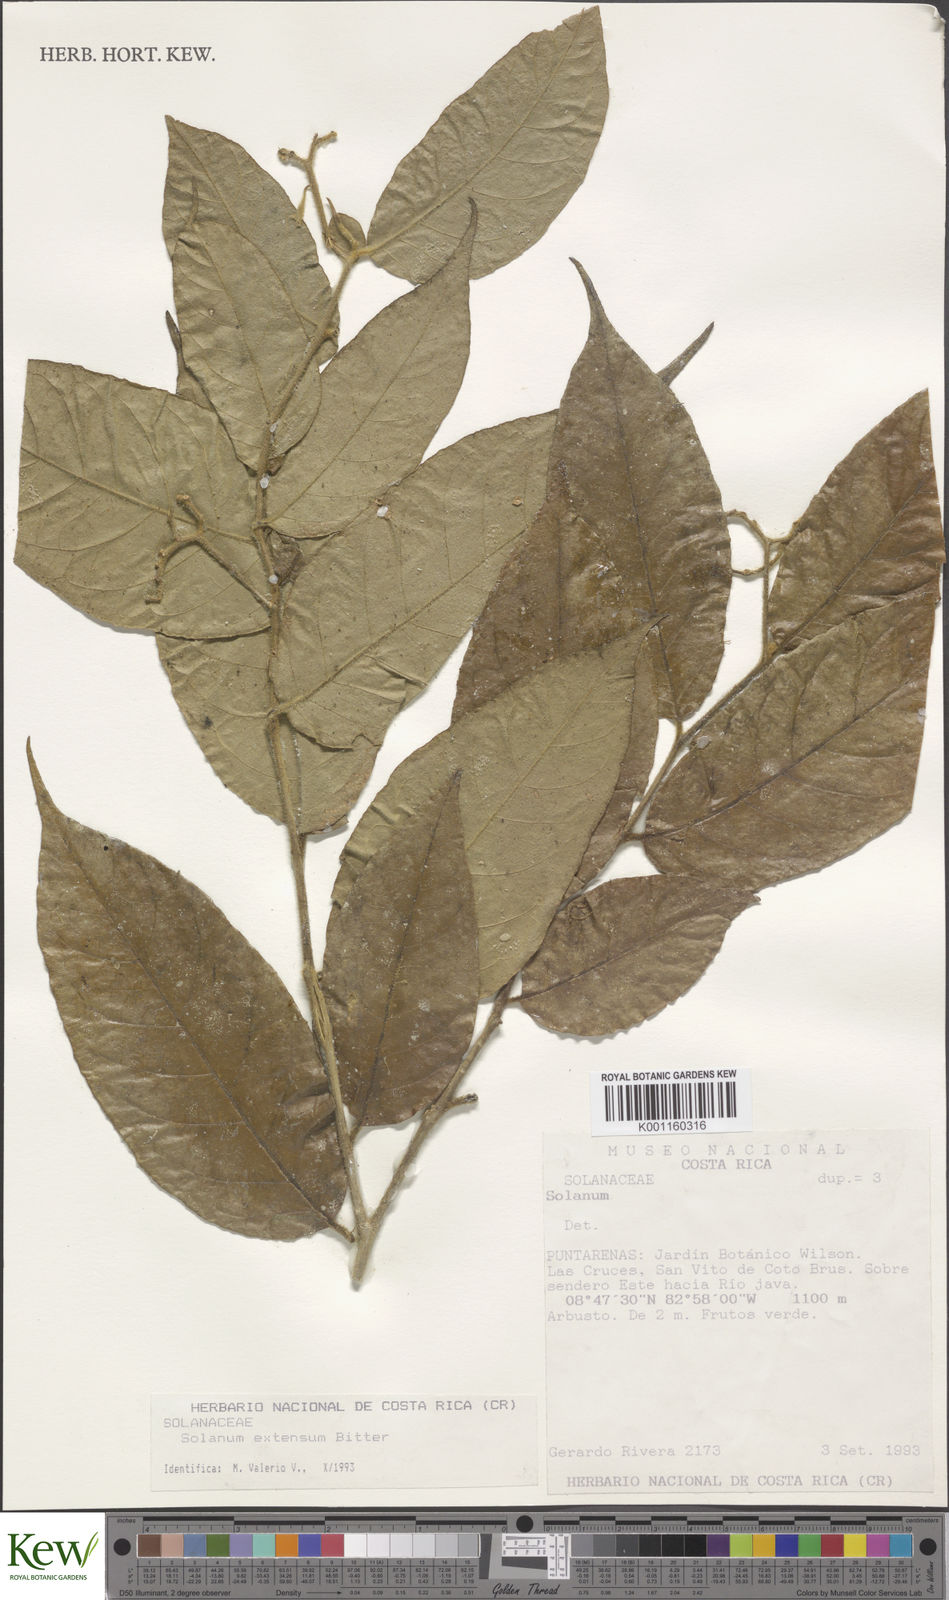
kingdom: Plantae
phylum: Tracheophyta
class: Magnoliopsida
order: Solanales
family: Solanaceae
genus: Solanum
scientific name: Solanum lantana
